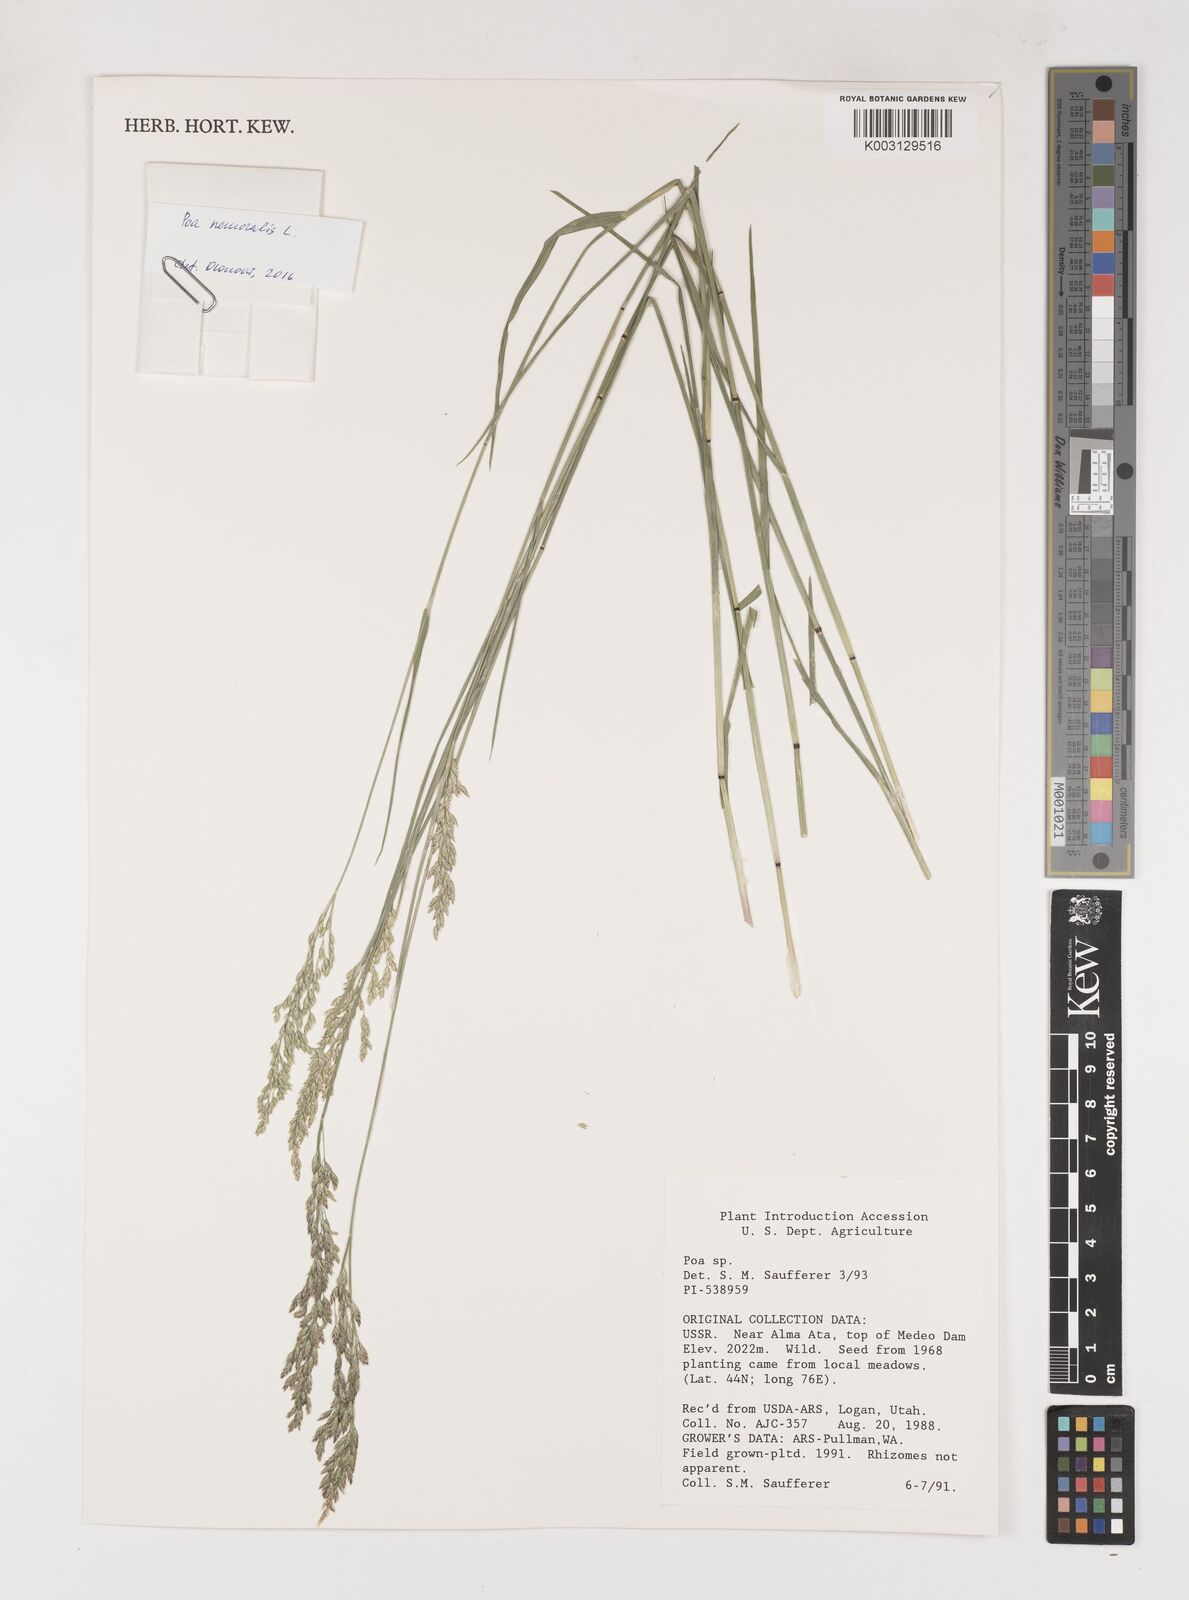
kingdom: Plantae
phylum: Tracheophyta
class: Liliopsida
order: Poales
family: Poaceae
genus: Poa
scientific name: Poa
